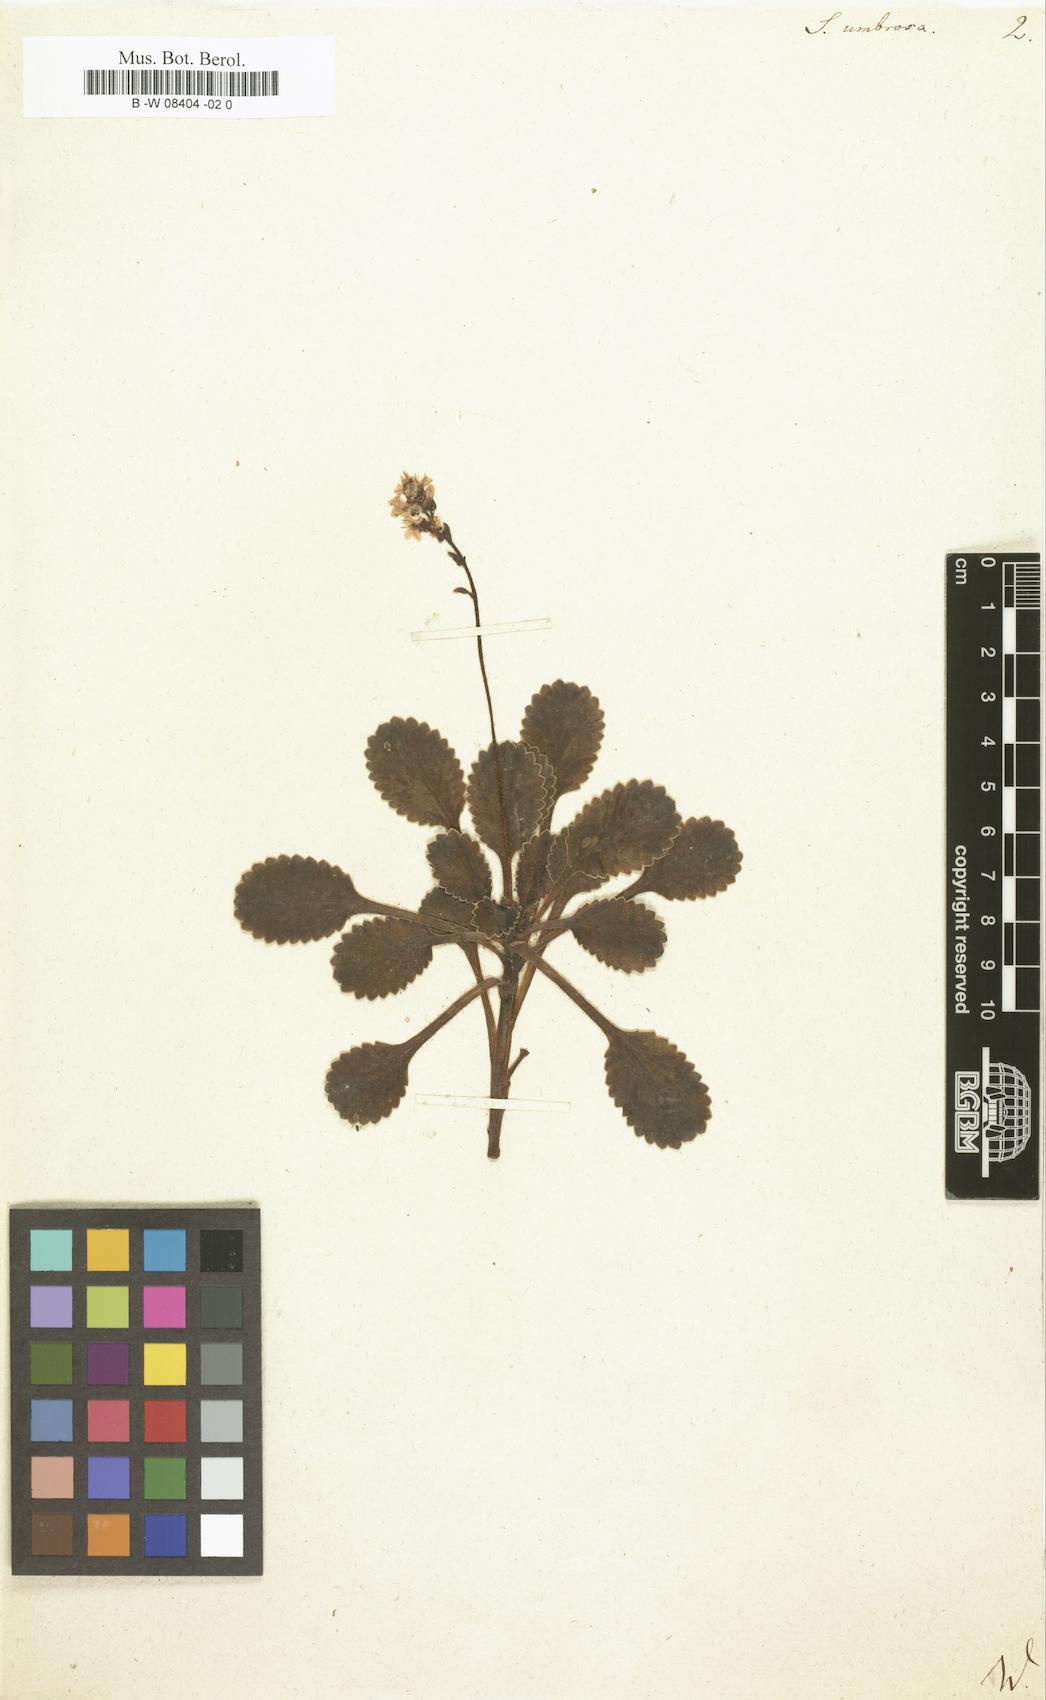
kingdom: Plantae
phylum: Tracheophyta
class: Magnoliopsida
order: Saxifragales
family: Saxifragaceae
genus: Saxifraga
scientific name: Saxifraga umbrosa
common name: Pyrenean saxifrage
